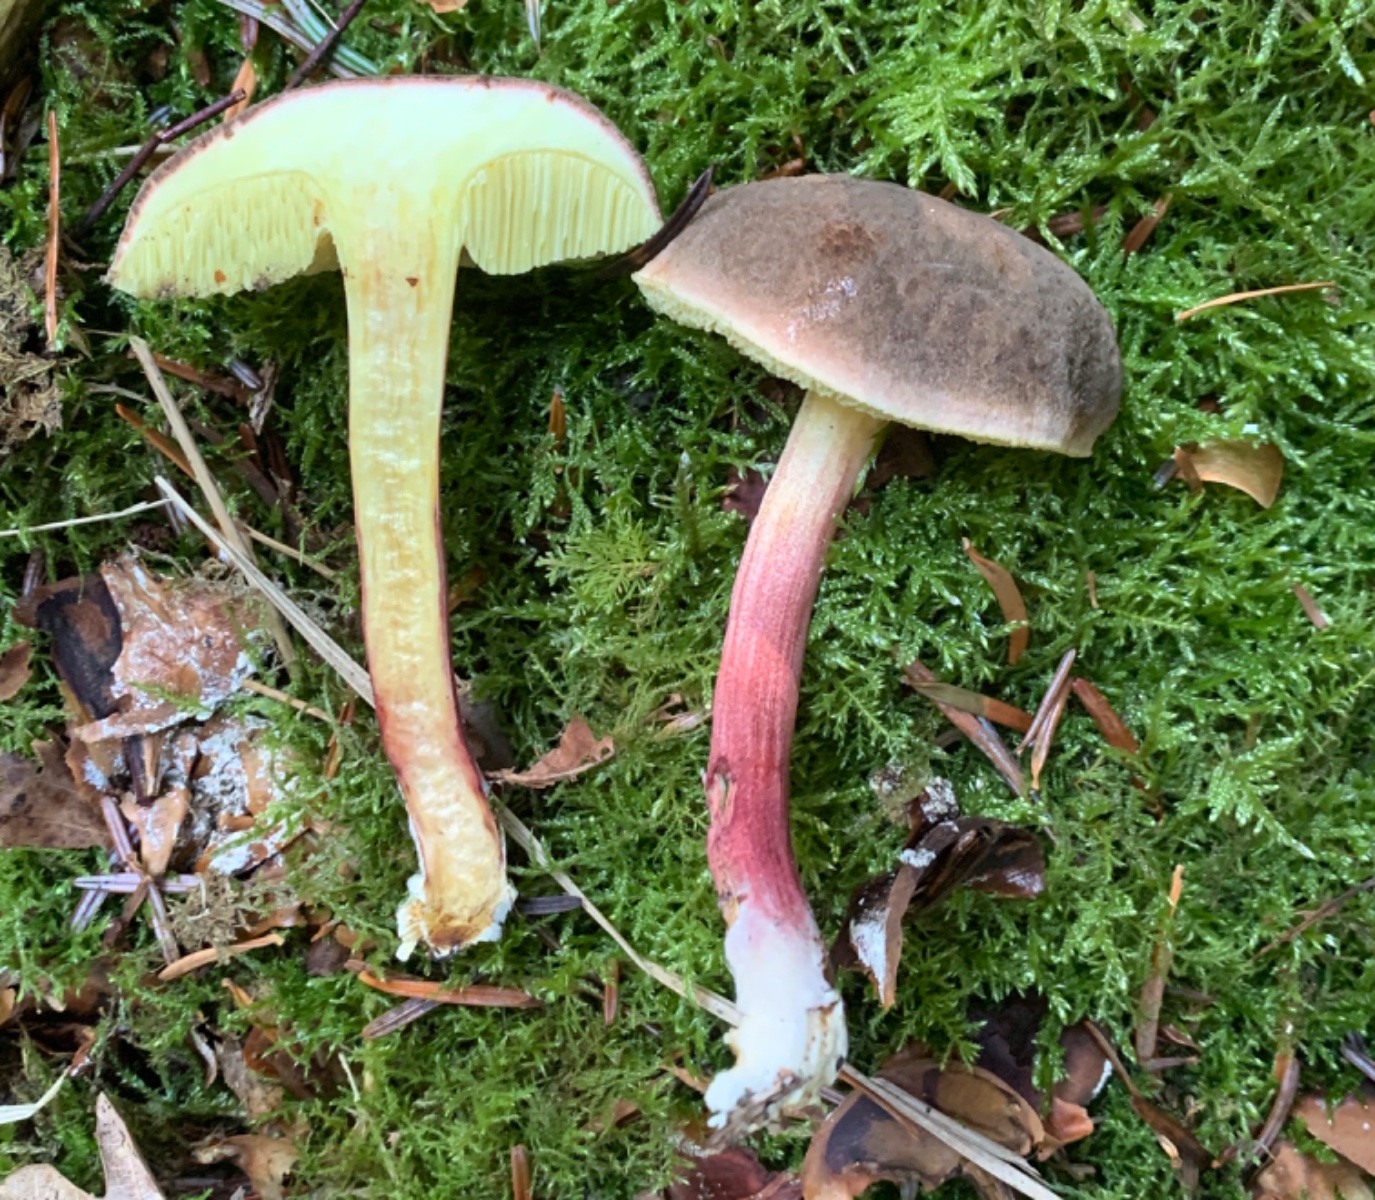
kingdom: Fungi
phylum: Basidiomycota
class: Agaricomycetes
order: Boletales
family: Boletaceae
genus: Xerocomellus
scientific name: Xerocomellus chrysenteron
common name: rødsprukken rørhat
